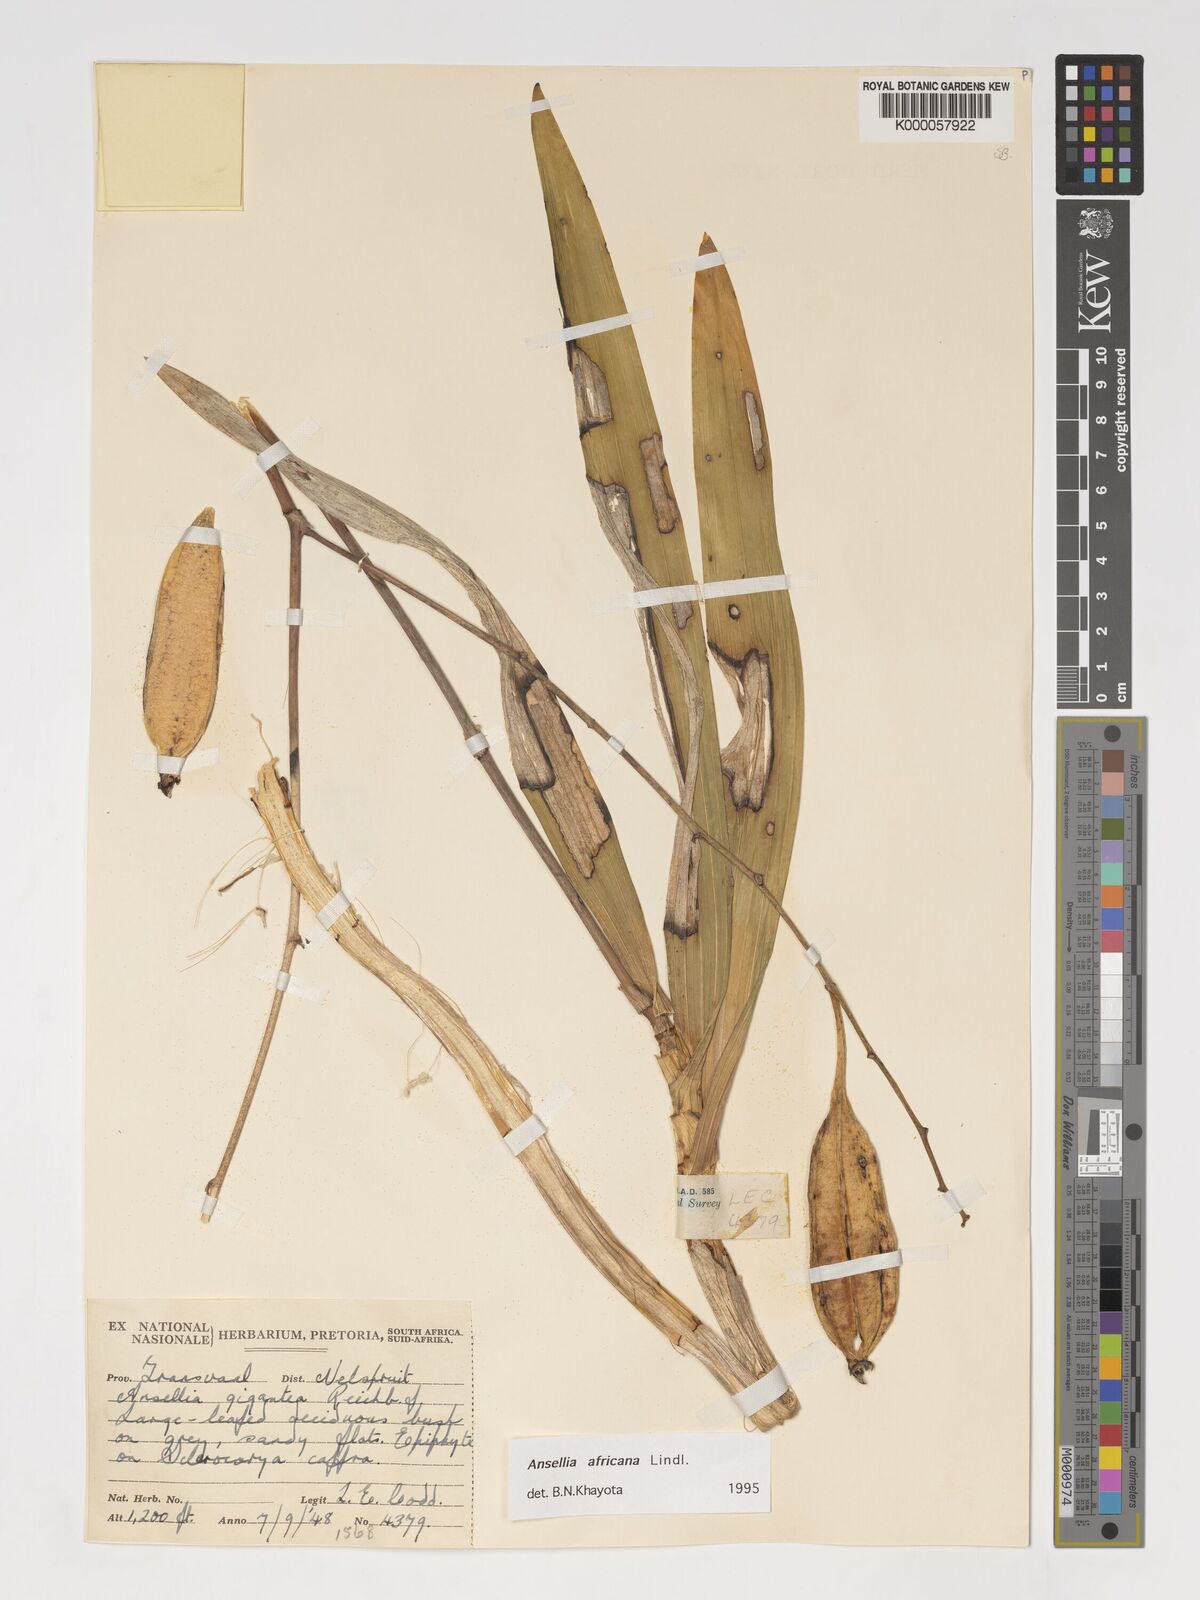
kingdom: Plantae
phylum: Tracheophyta
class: Liliopsida
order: Asparagales
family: Orchidaceae
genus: Ansellia
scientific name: Ansellia africana
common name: African ansellia
